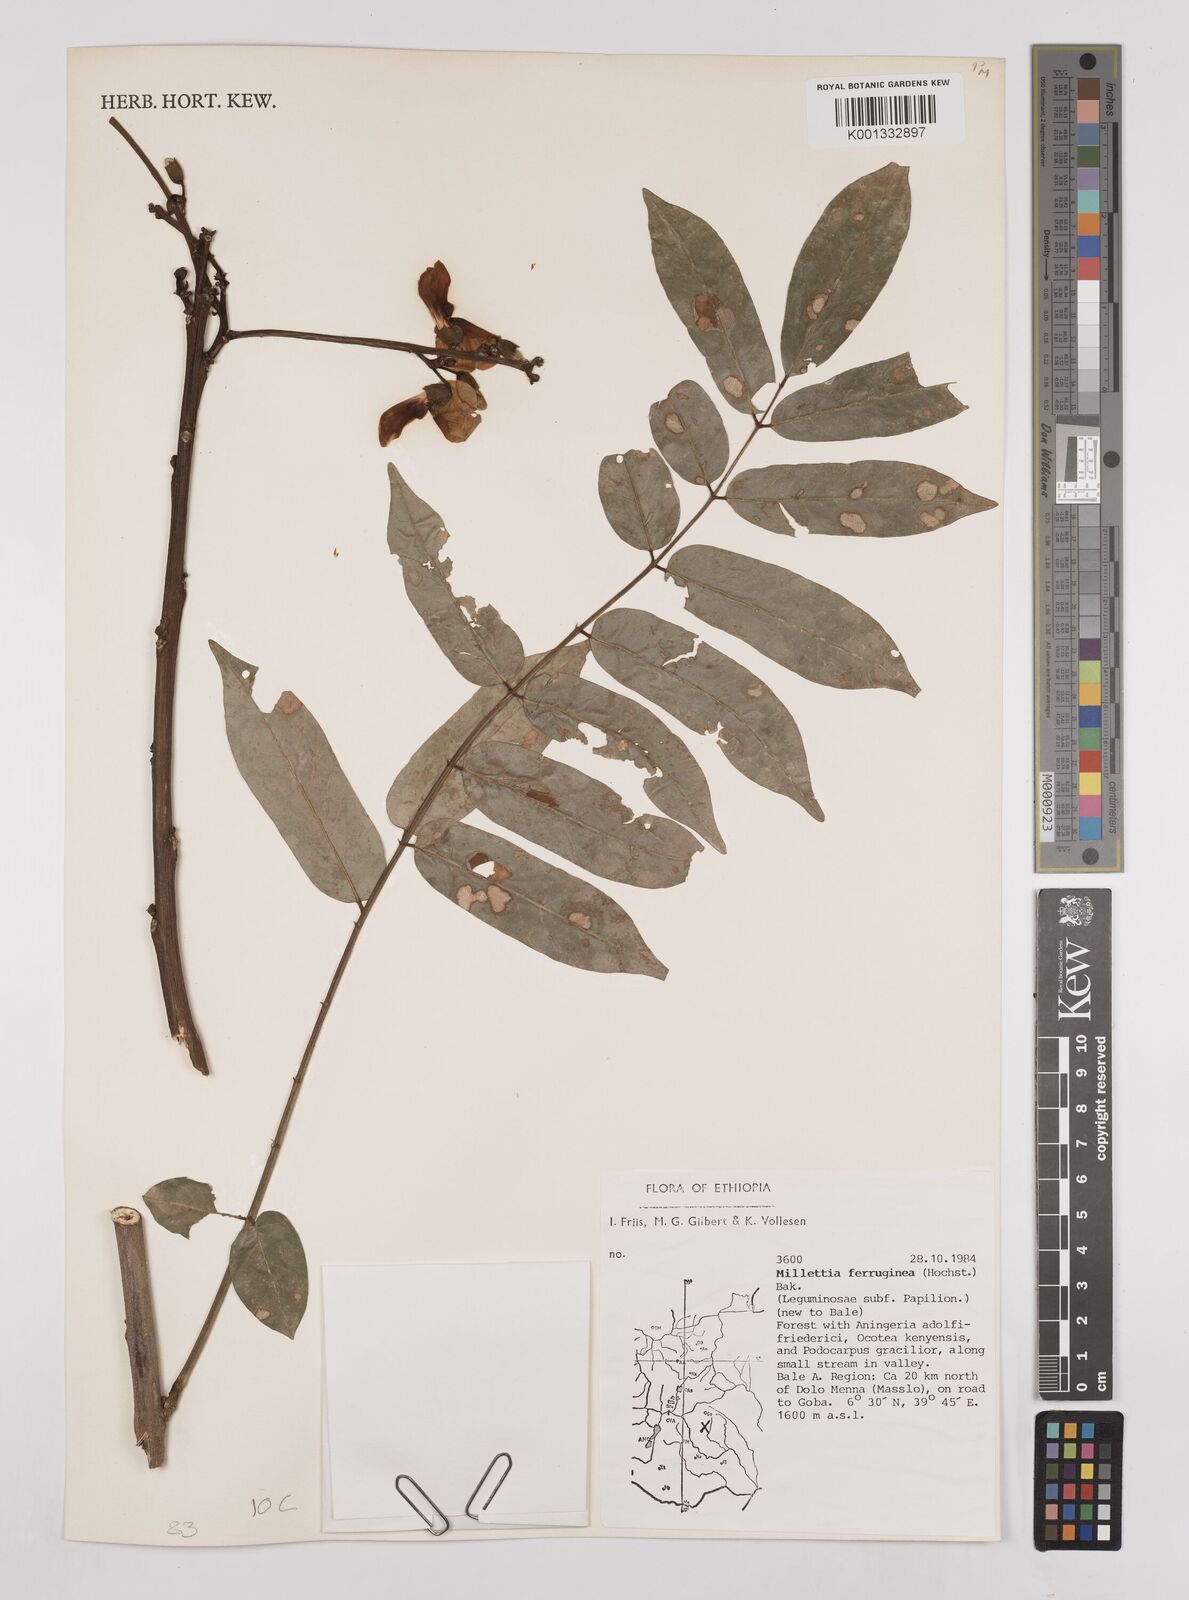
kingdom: Plantae
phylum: Tracheophyta
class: Magnoliopsida
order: Fabales
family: Fabaceae
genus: Millettia
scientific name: Millettia ferruginea
